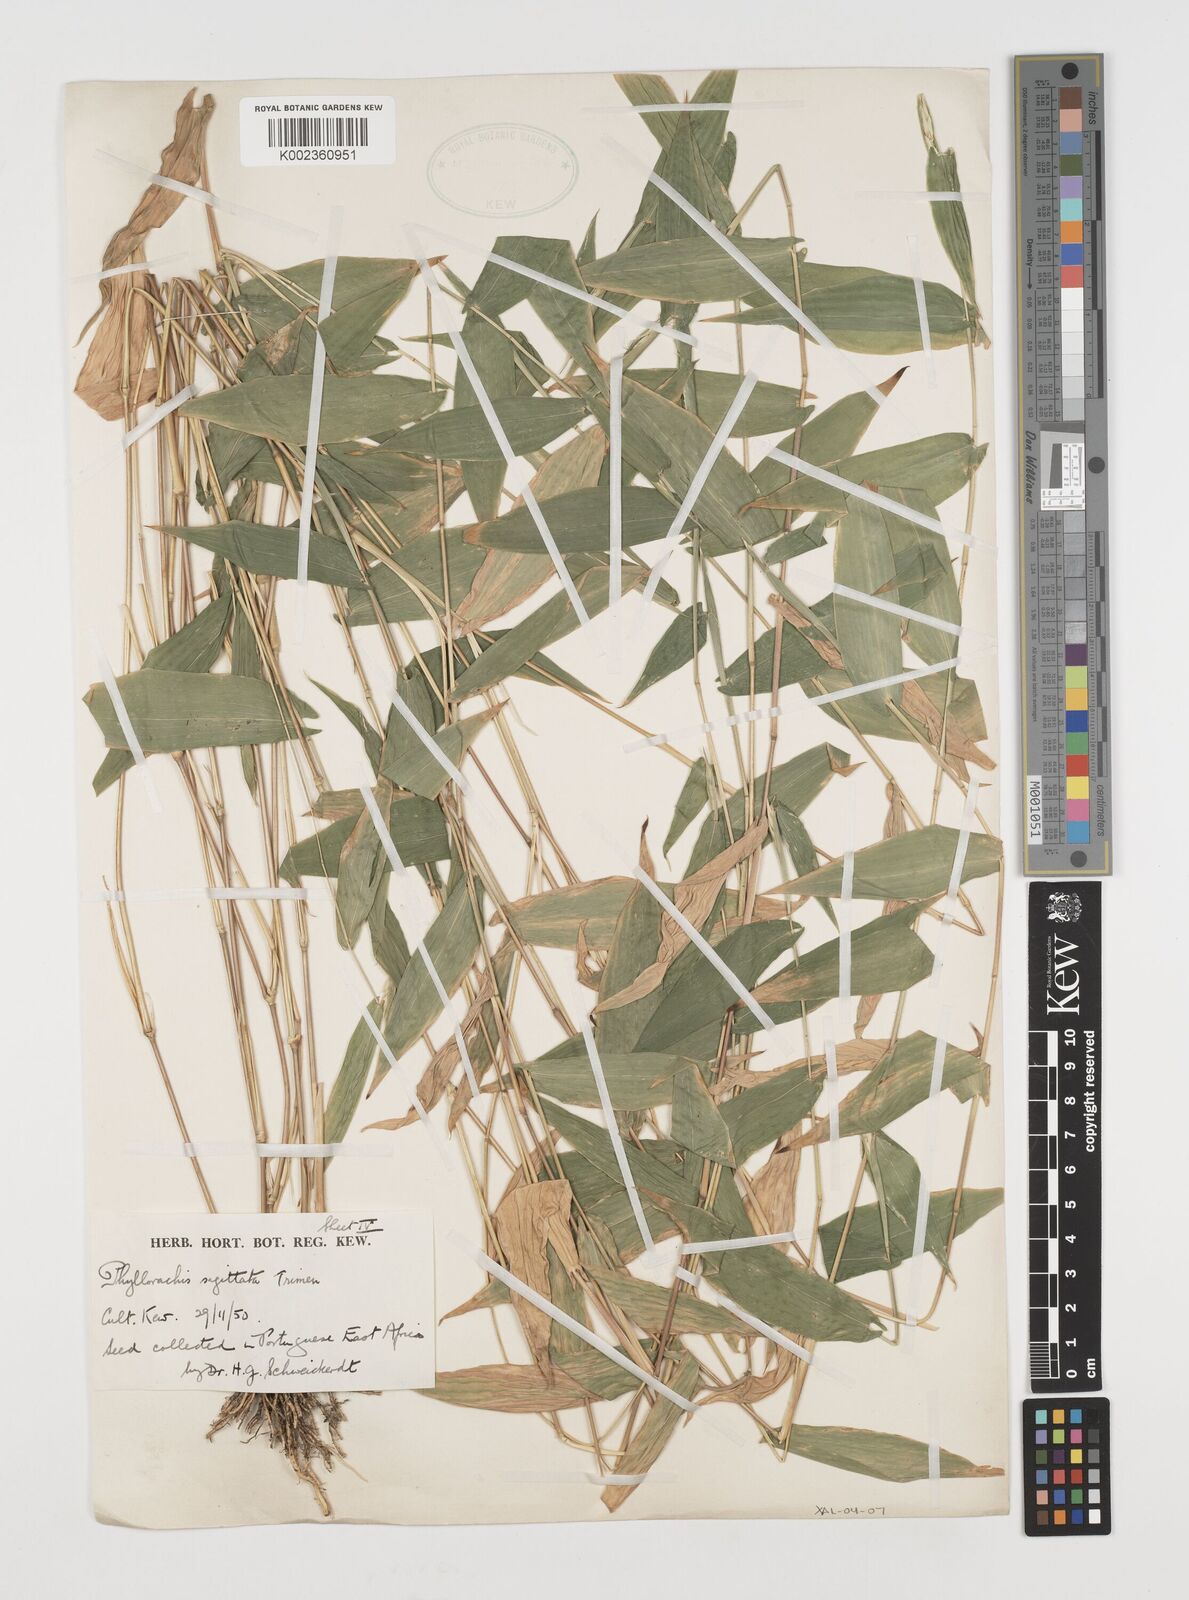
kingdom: Plantae
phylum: Tracheophyta
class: Liliopsida
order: Poales
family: Poaceae
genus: Phyllorachis
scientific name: Phyllorachis sagittata
